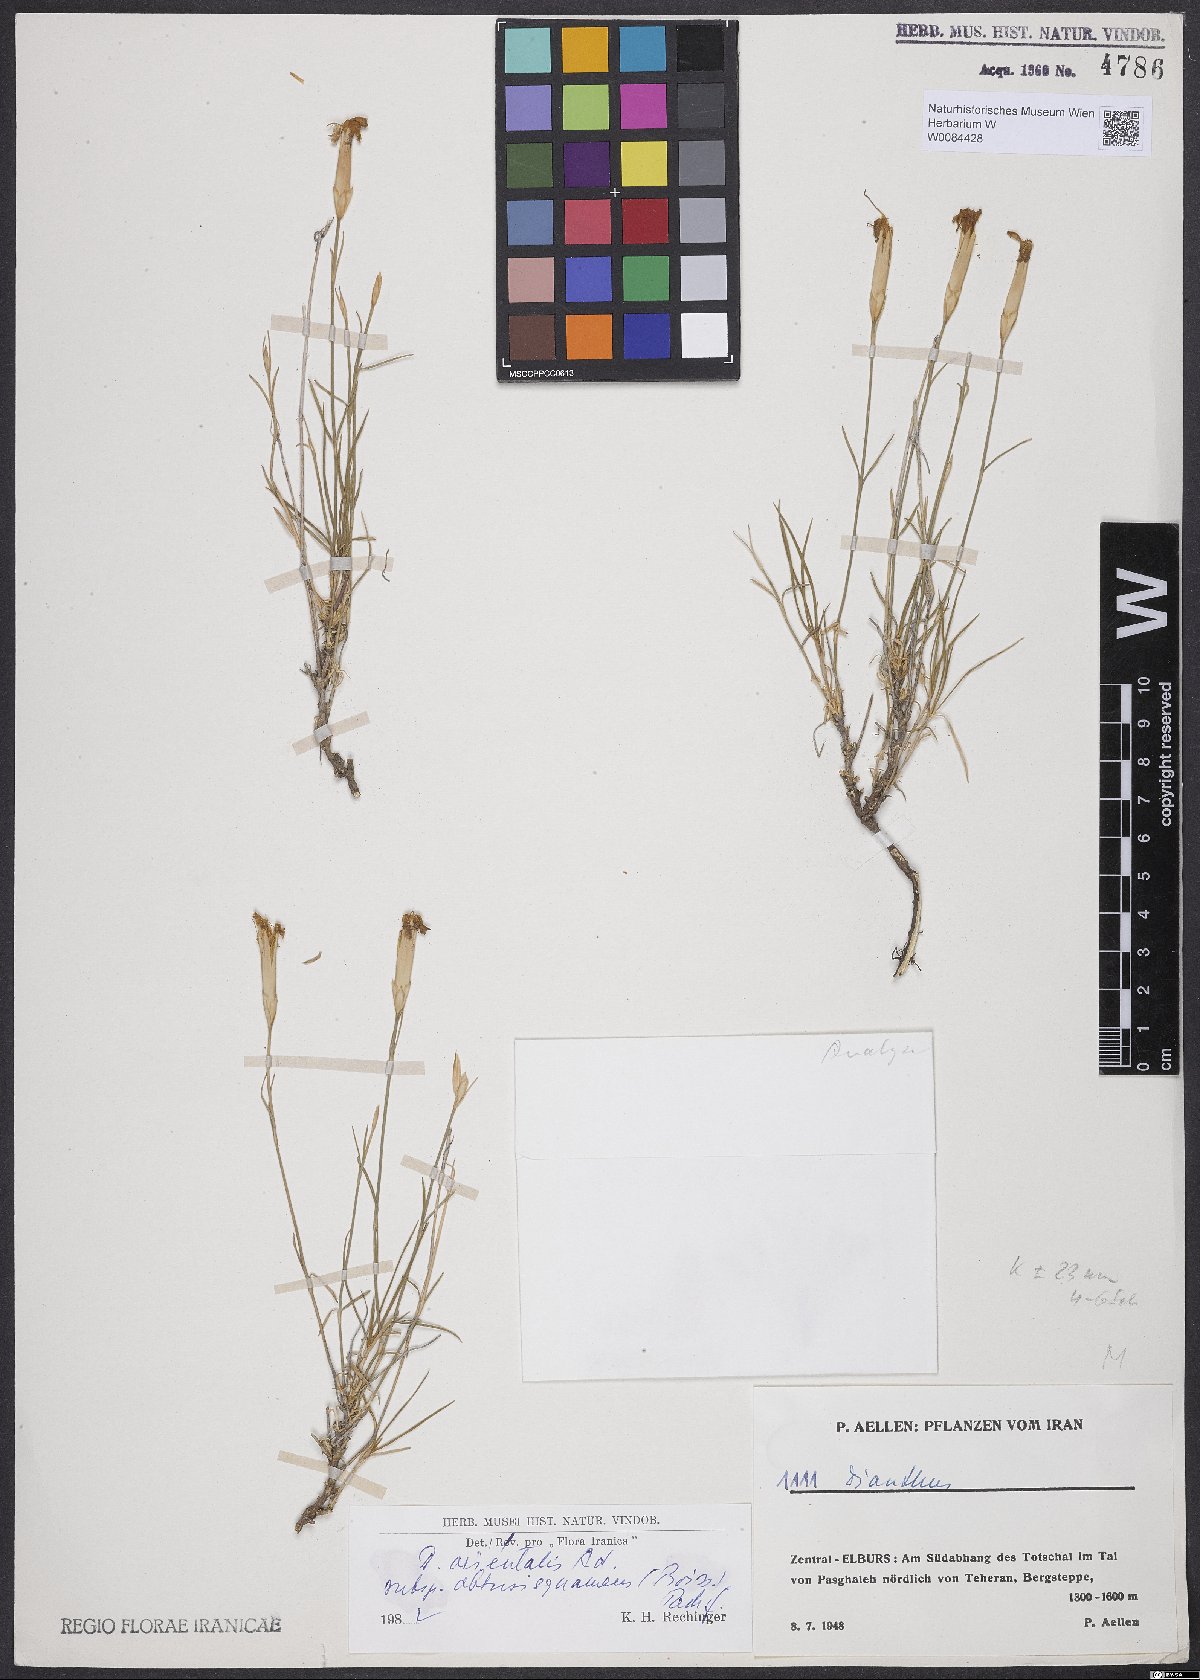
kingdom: Plantae
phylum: Tracheophyta
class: Magnoliopsida
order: Caryophyllales
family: Caryophyllaceae
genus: Dianthus
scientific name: Dianthus orientalis
